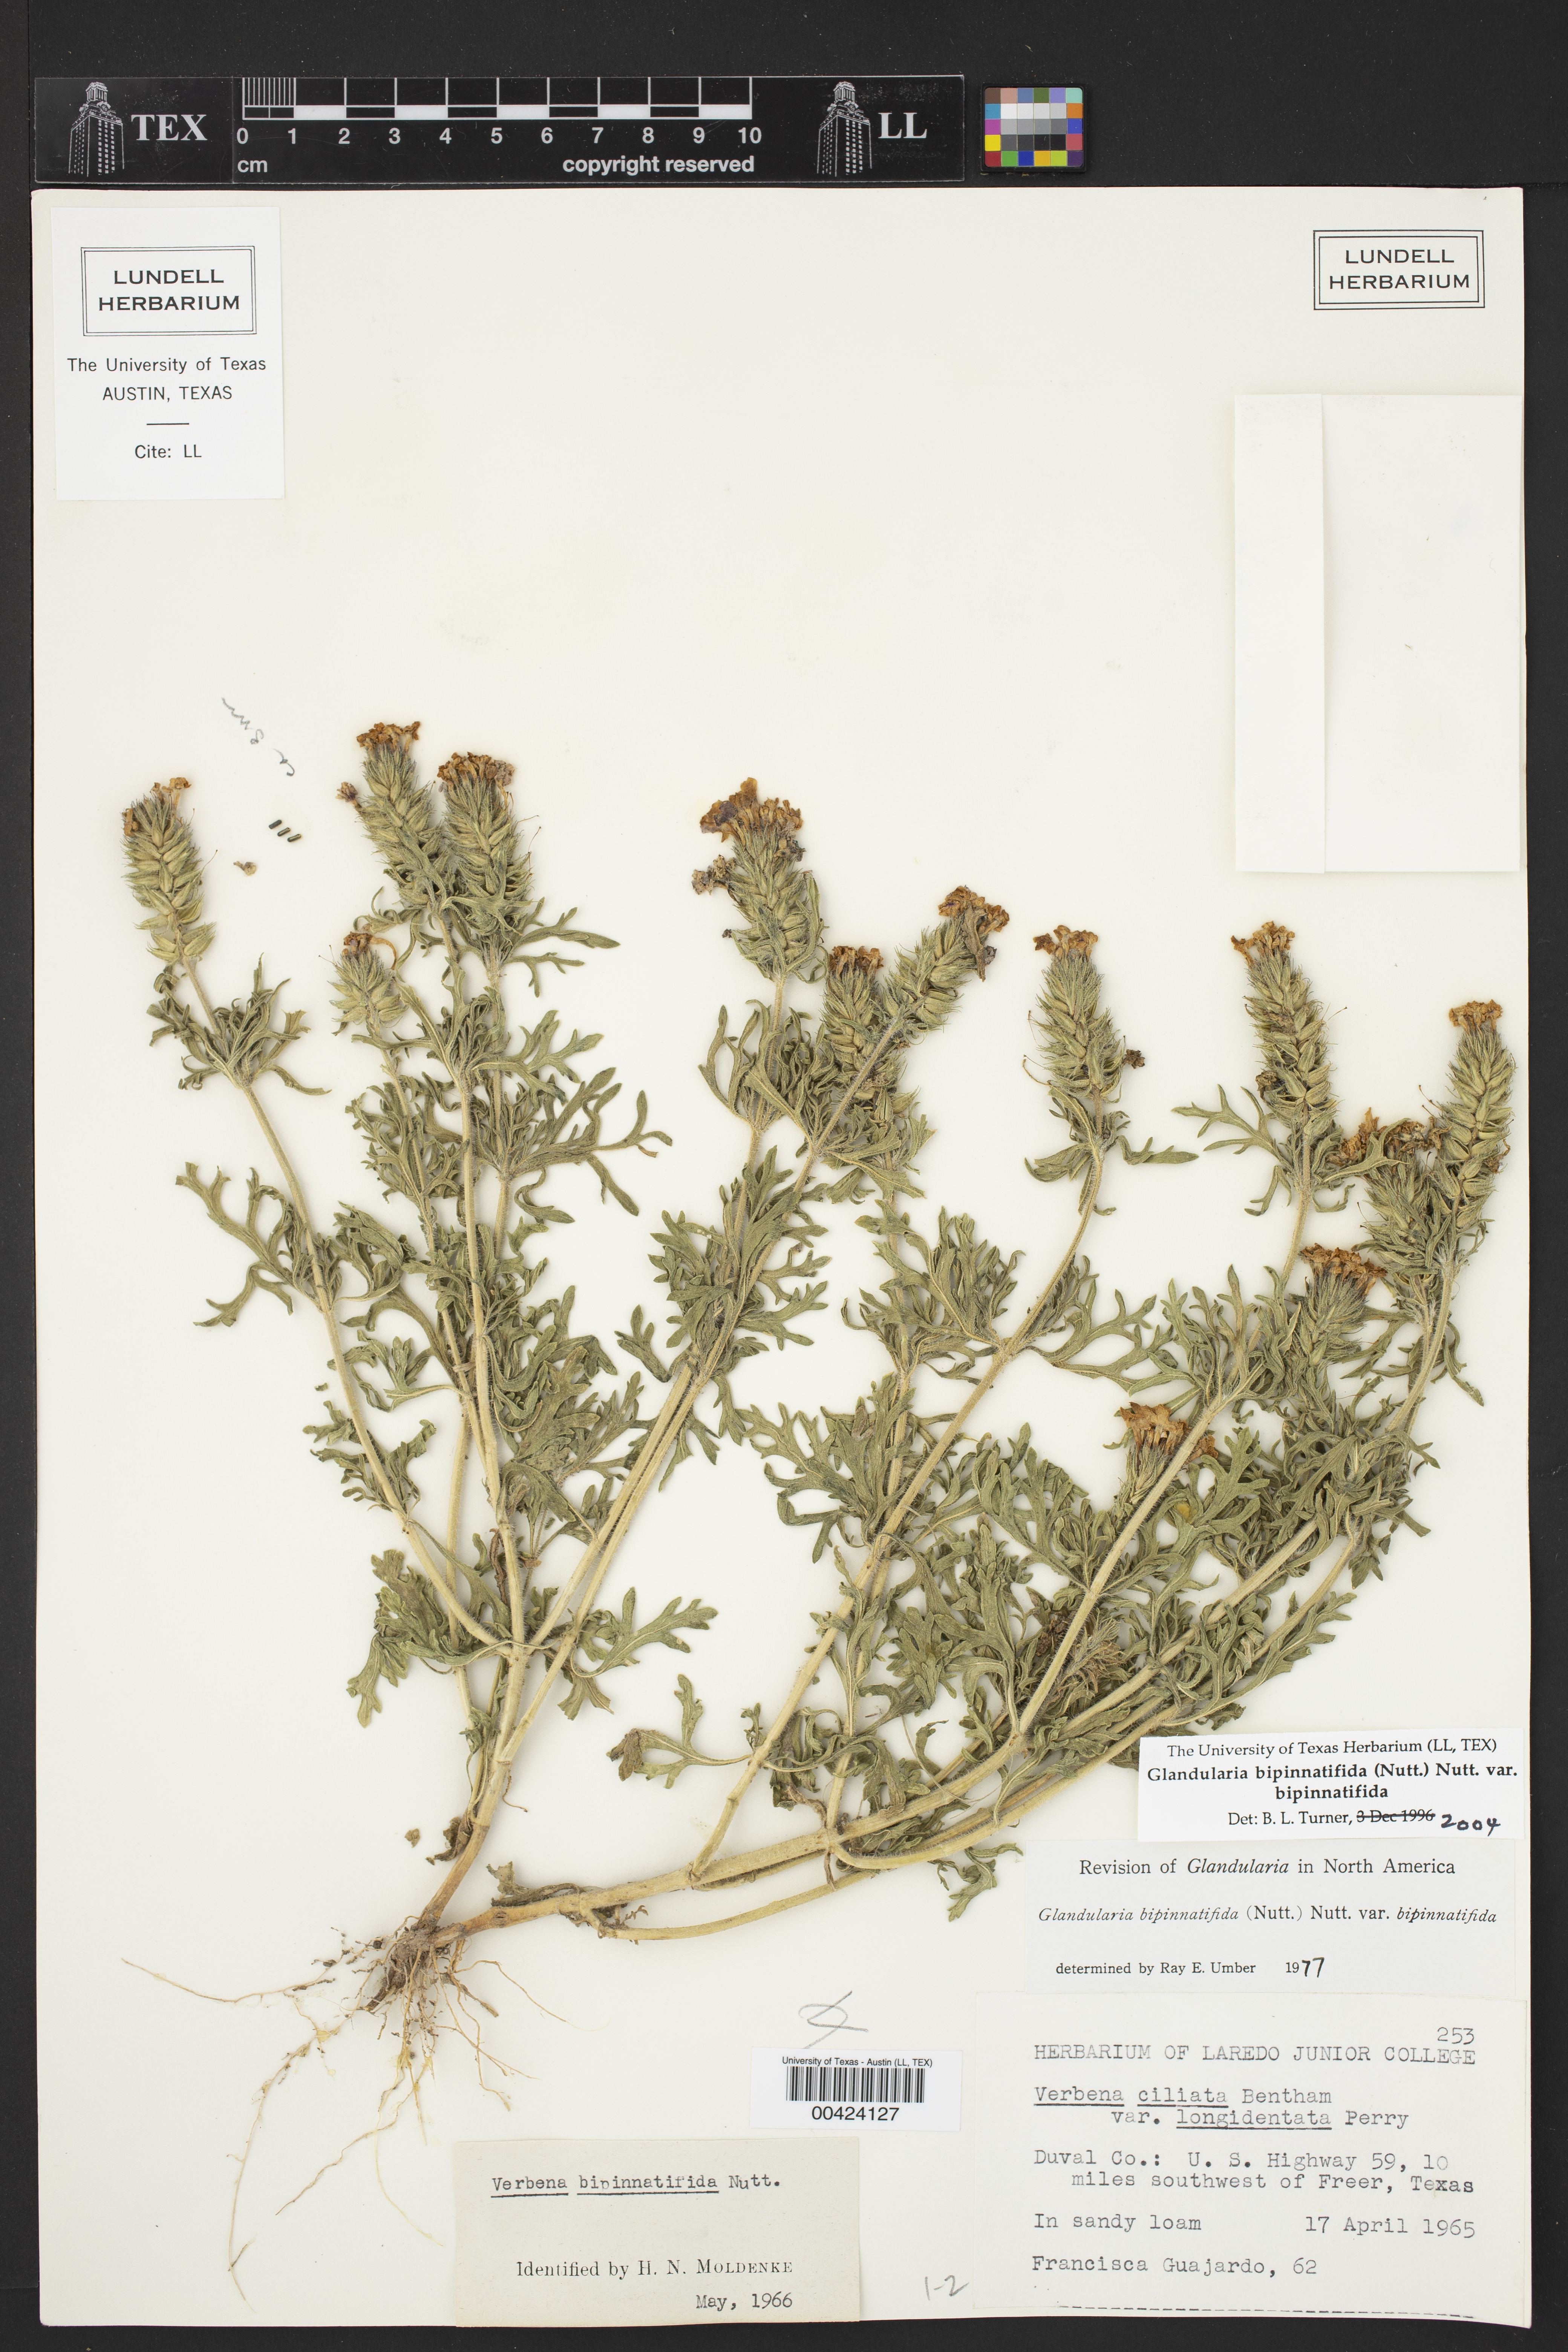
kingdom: Plantae
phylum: Tracheophyta
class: Magnoliopsida
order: Lamiales
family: Verbenaceae
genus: Verbena
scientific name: Verbena bipinnatifida
